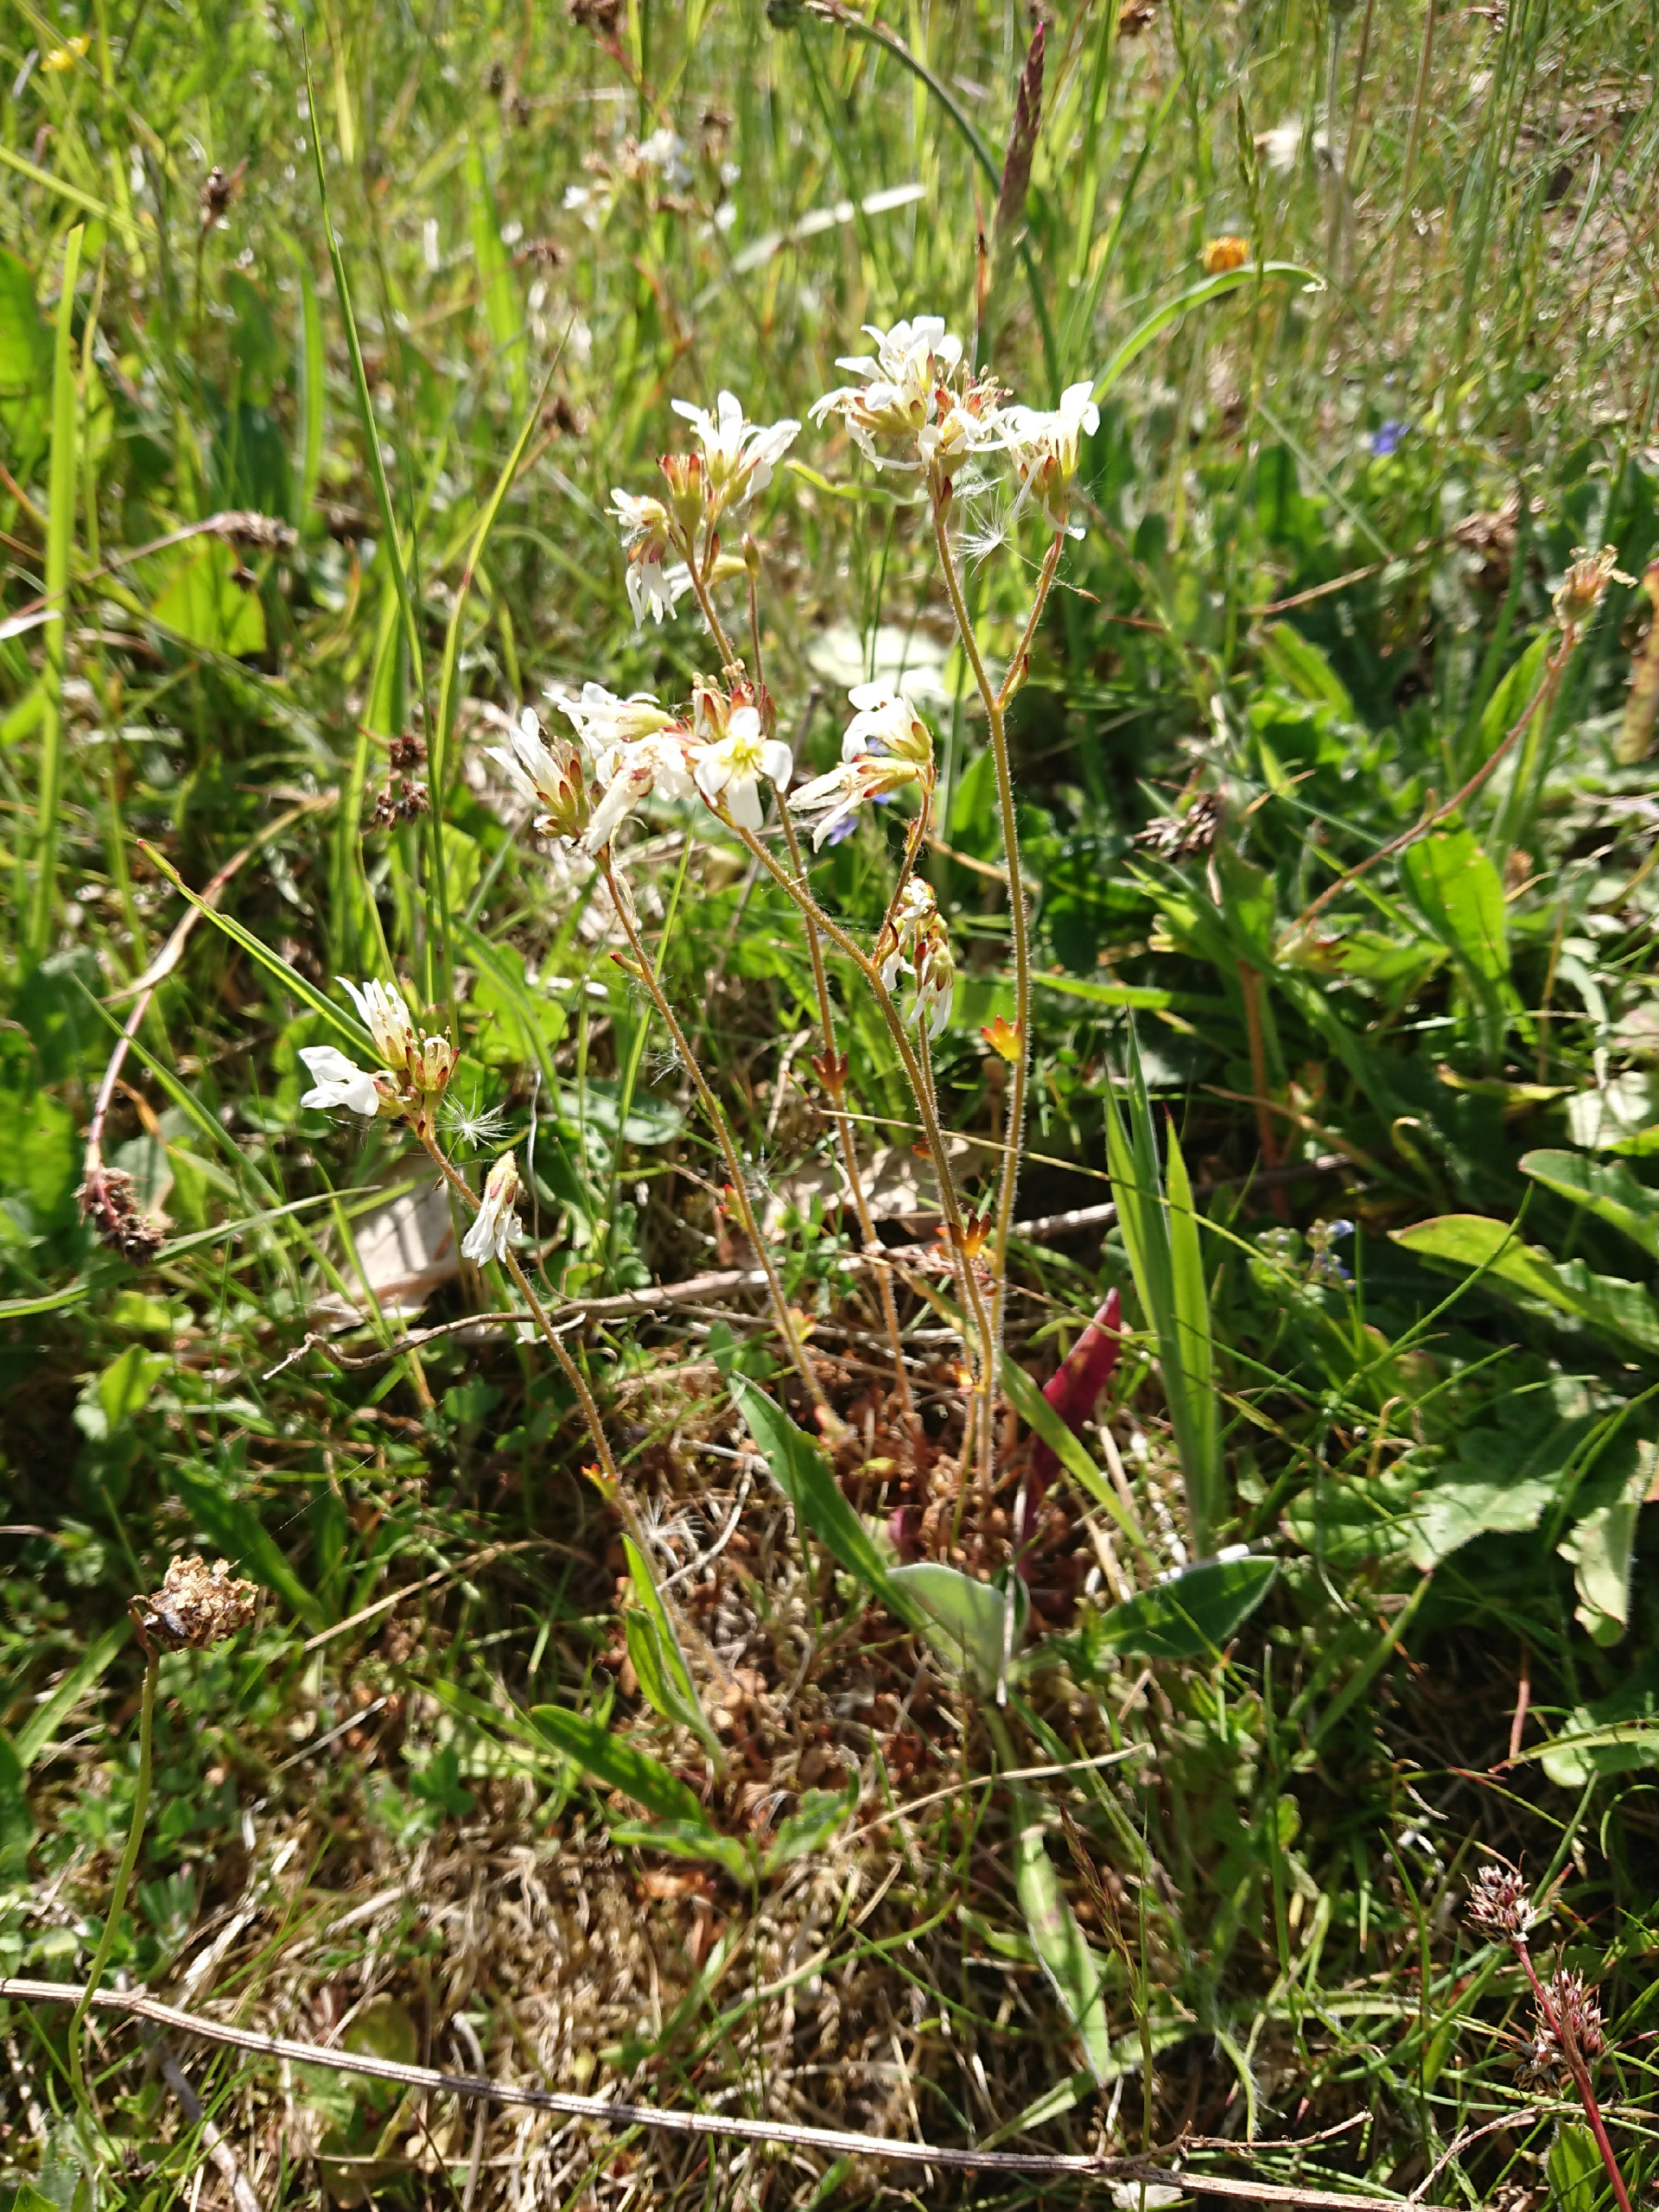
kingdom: Plantae
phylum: Tracheophyta
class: Magnoliopsida
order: Saxifragales
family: Saxifragaceae
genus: Saxifraga
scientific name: Saxifraga granulata
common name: Kornet stenbræk
